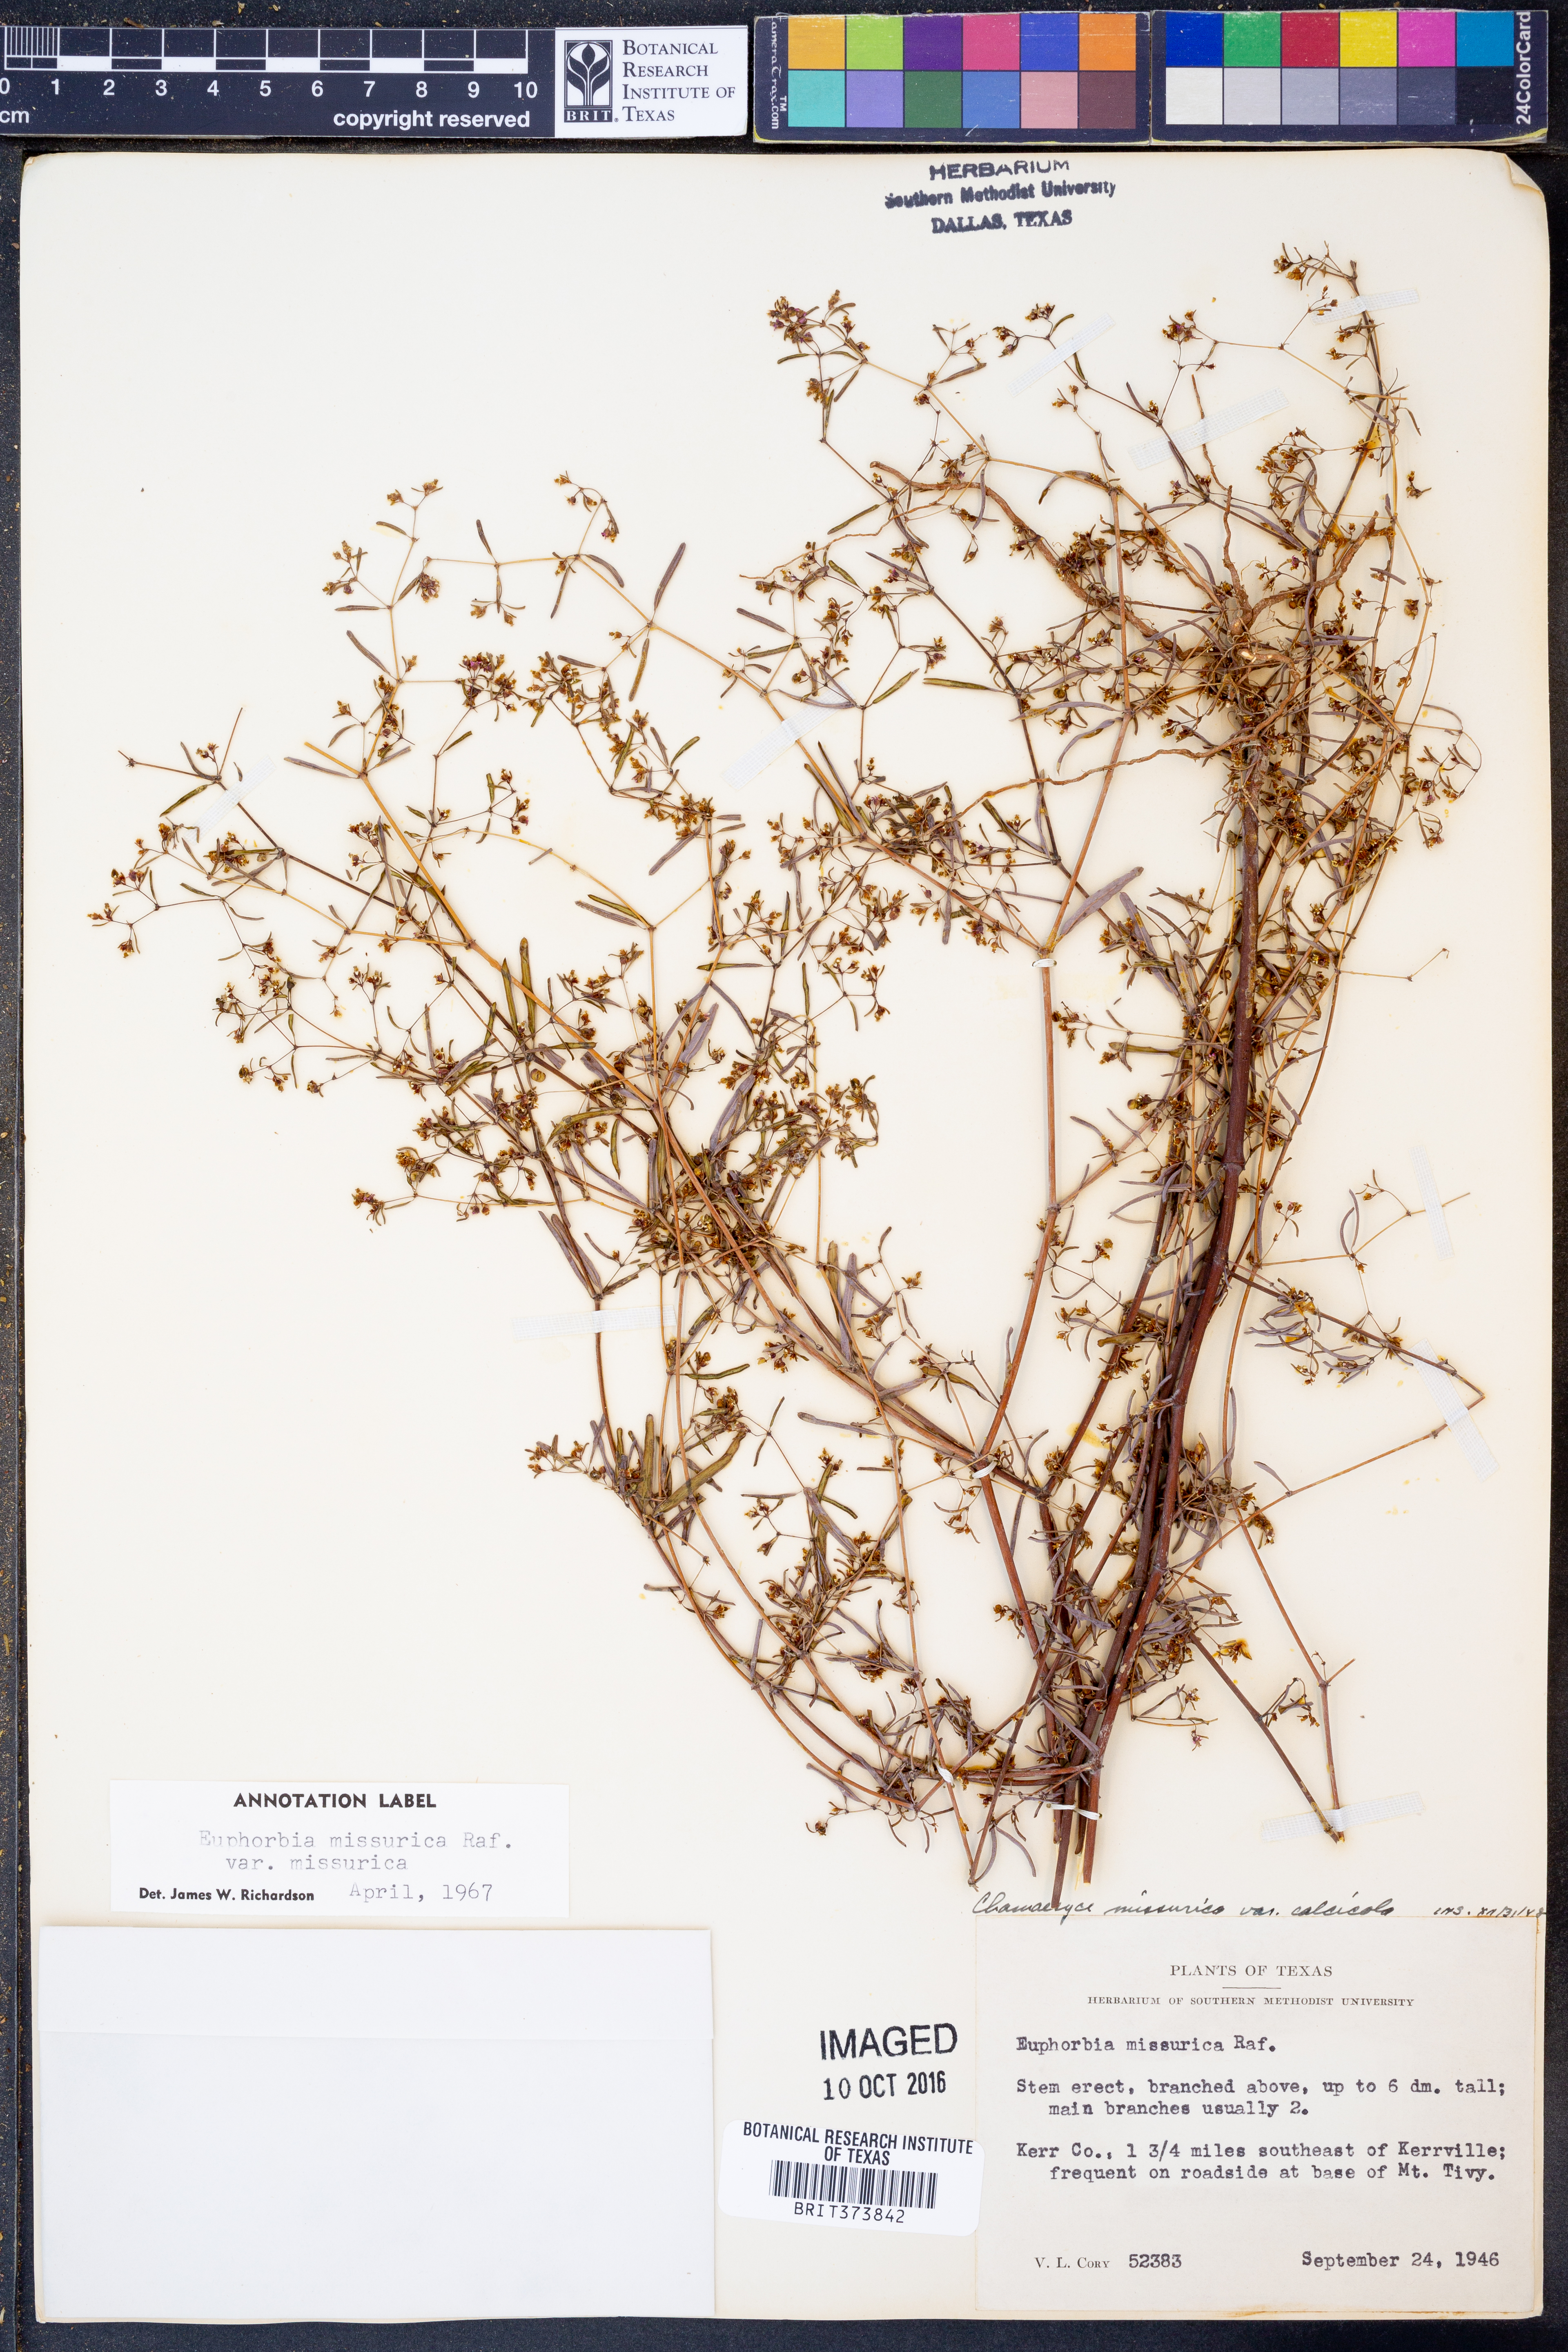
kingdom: Plantae
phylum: Tracheophyta
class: Magnoliopsida
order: Malpighiales
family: Euphorbiaceae
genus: Euphorbia
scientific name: Euphorbia missurica
